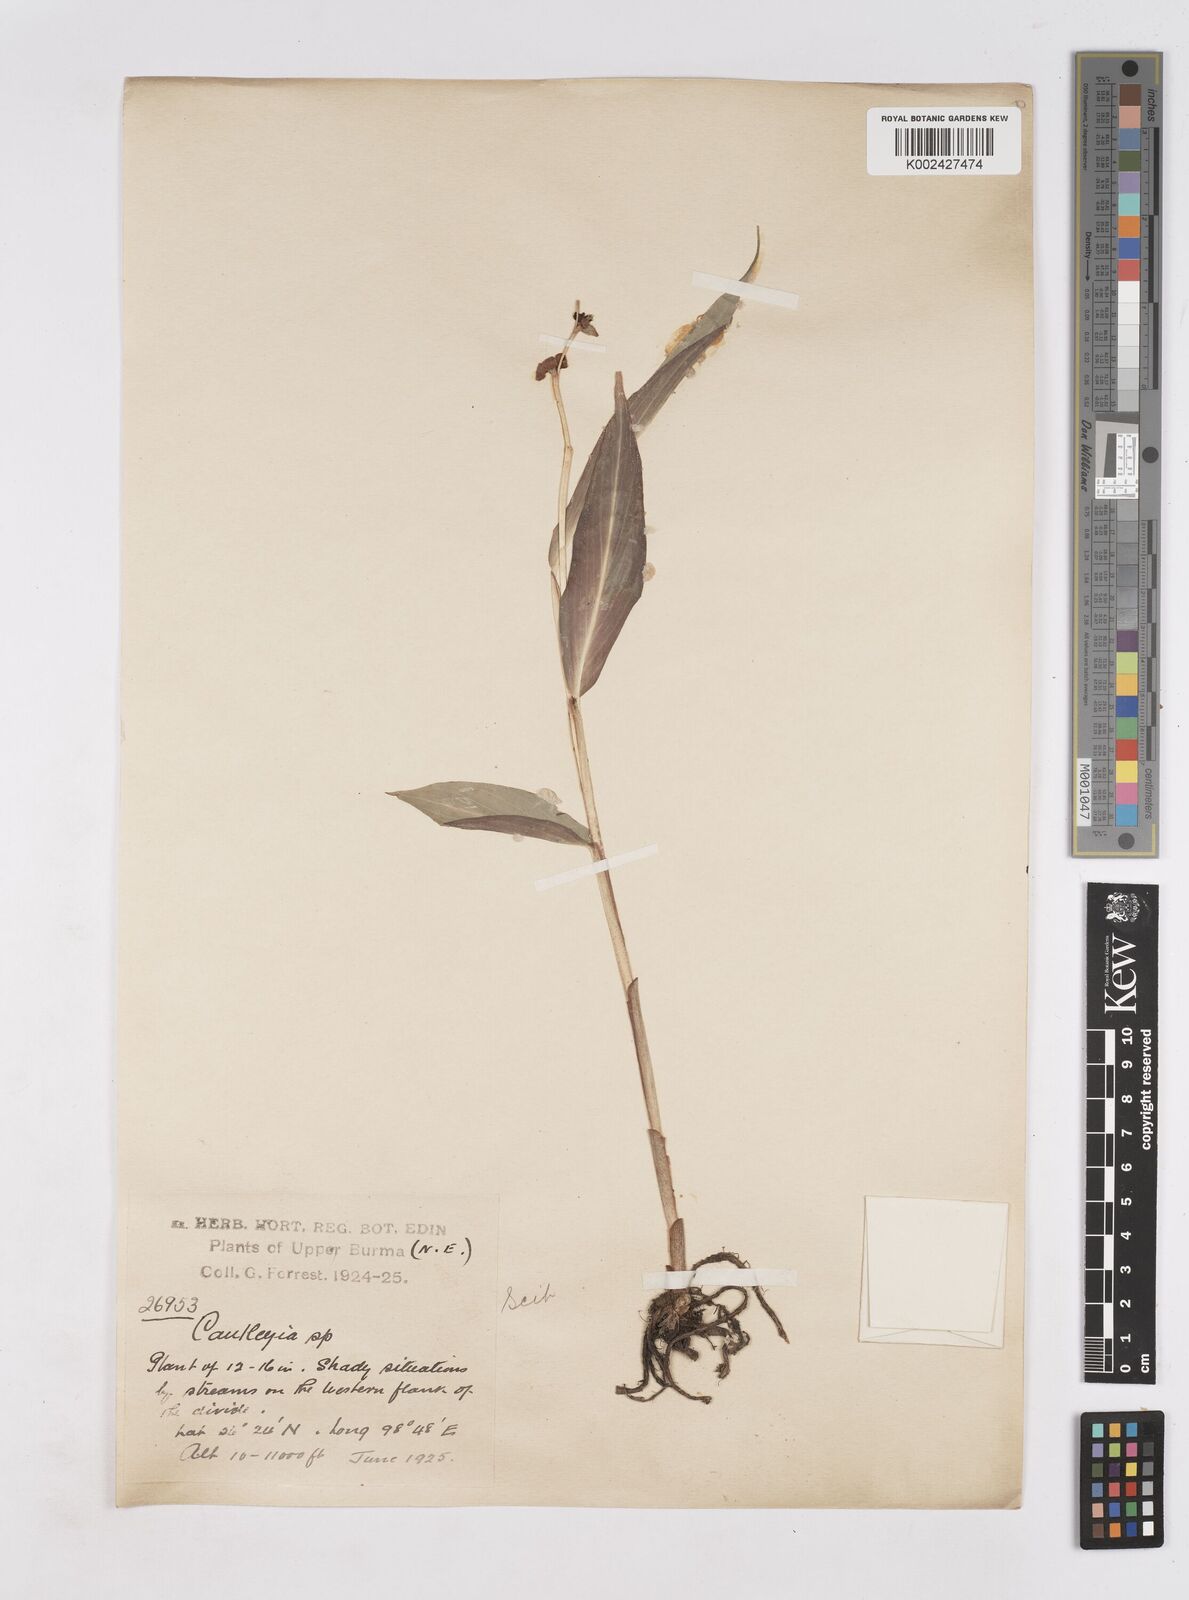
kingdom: Plantae
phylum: Tracheophyta
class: Liliopsida
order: Zingiberales
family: Zingiberaceae
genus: Cautleya
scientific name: Cautleya gracilis
